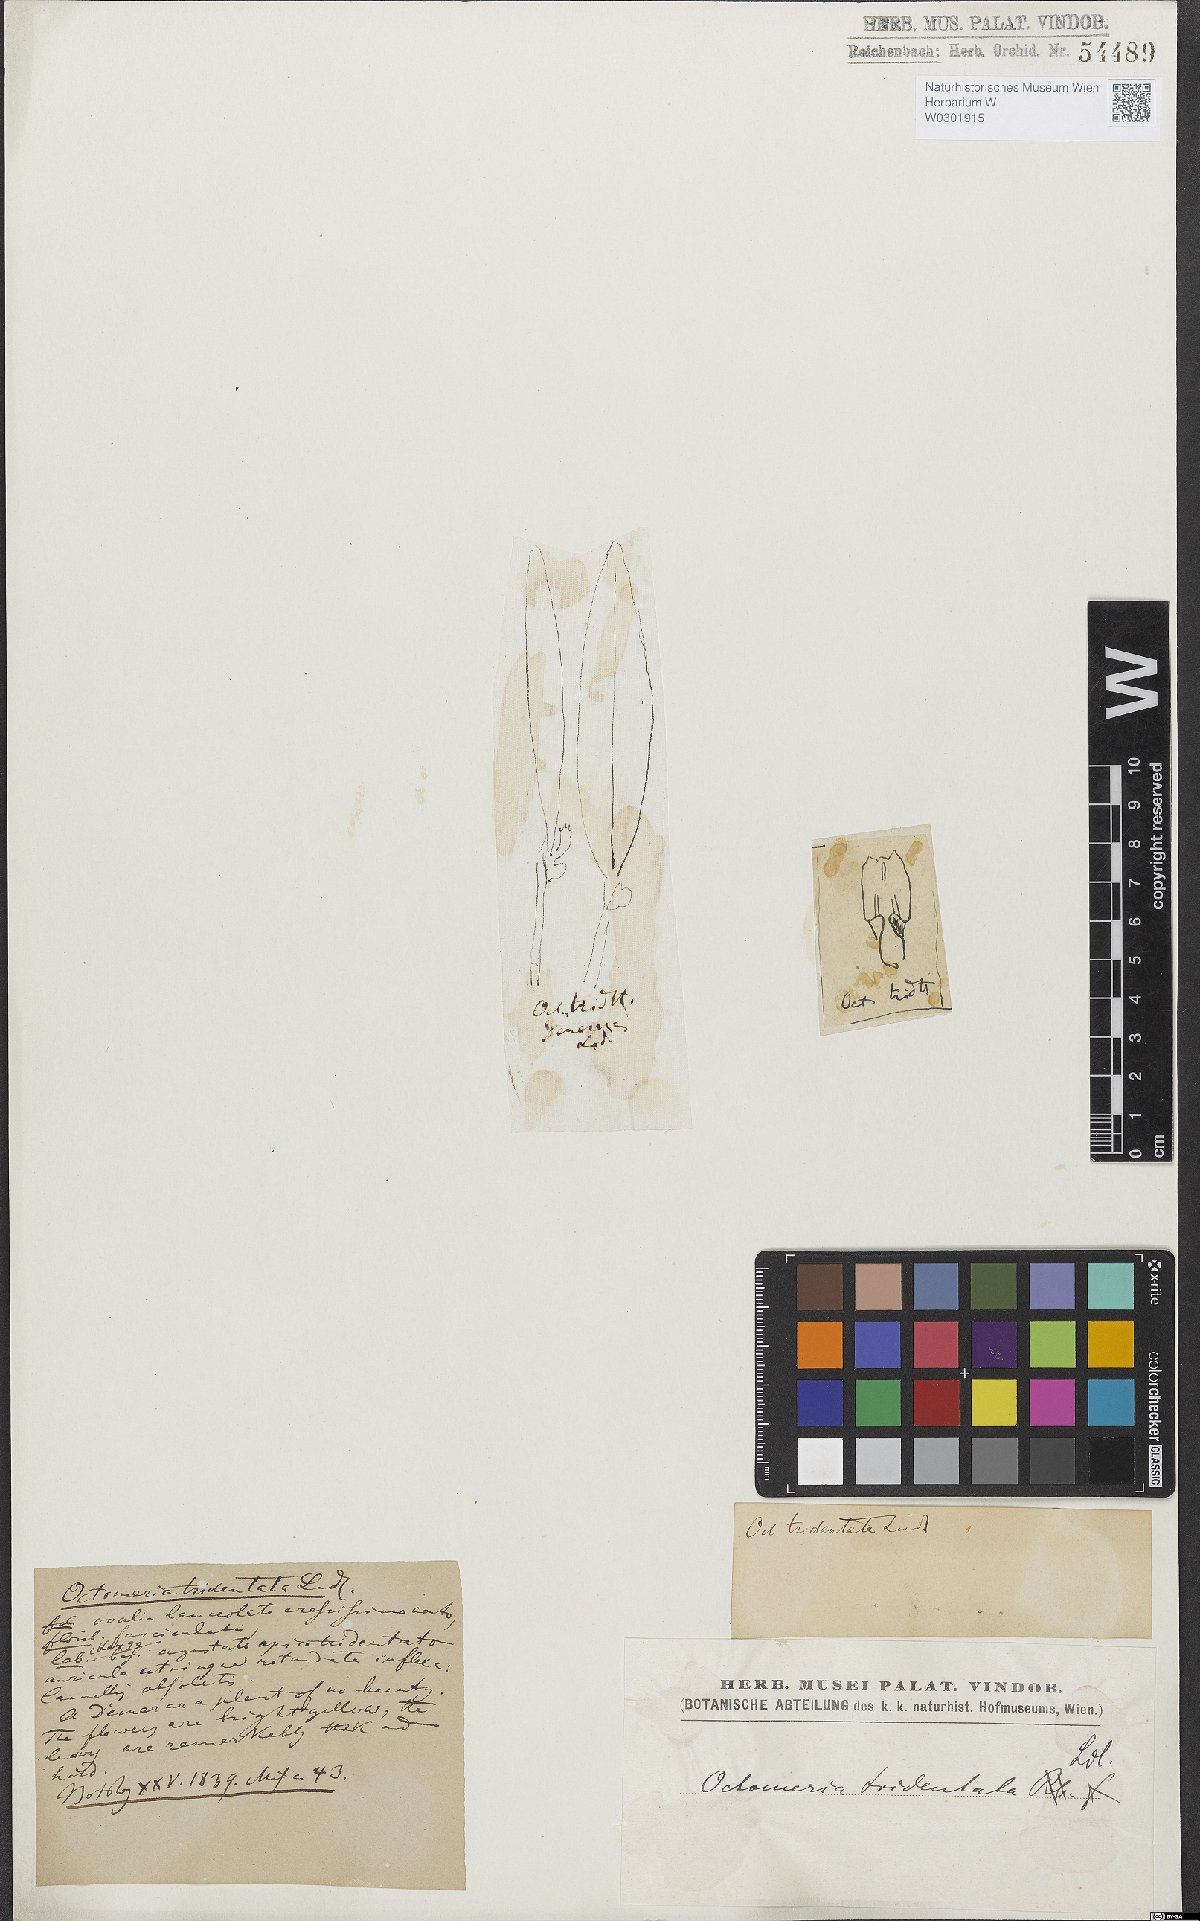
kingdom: Plantae
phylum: Tracheophyta
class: Liliopsida
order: Asparagales
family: Orchidaceae
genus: Octomeria
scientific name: Octomeria tridentata
